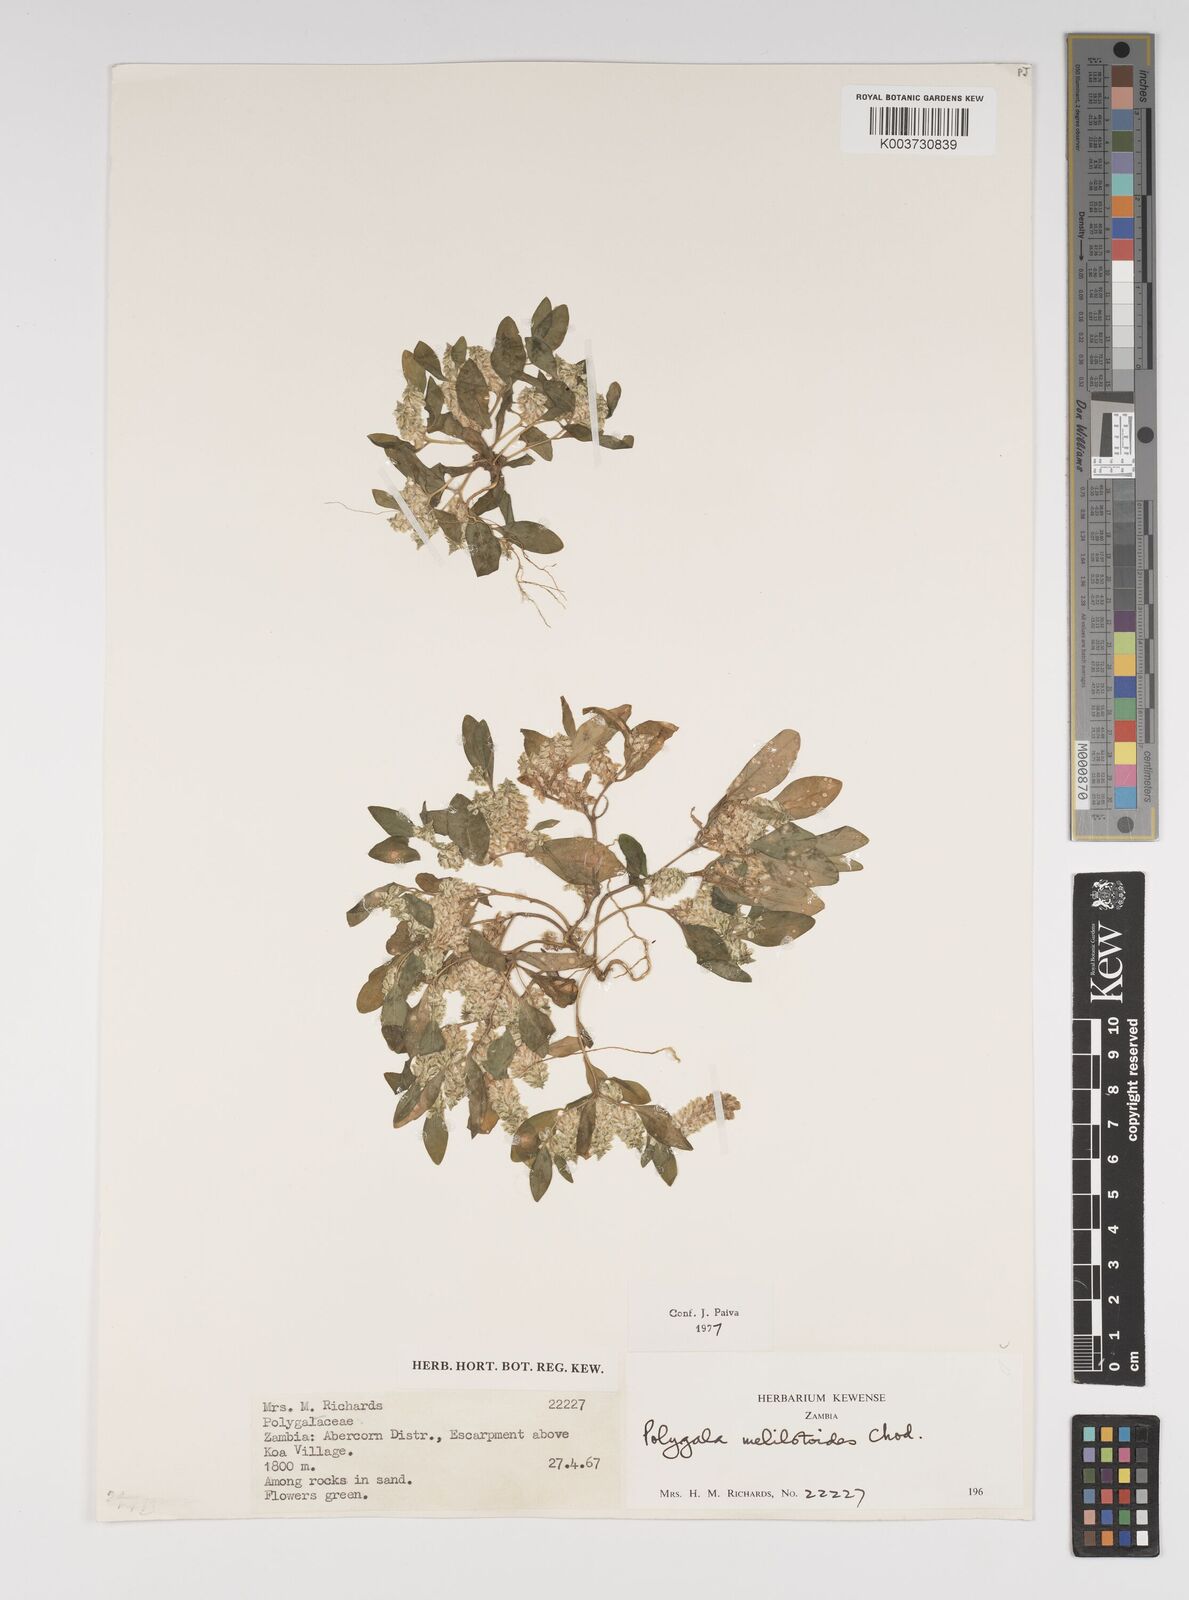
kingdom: Plantae
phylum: Tracheophyta
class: Magnoliopsida
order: Fabales
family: Polygalaceae
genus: Polygala
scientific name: Polygala melilotoides
